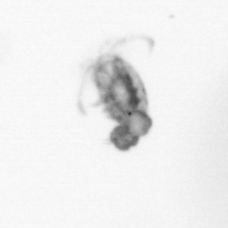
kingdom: Animalia
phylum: Arthropoda
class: Copepoda
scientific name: Copepoda
